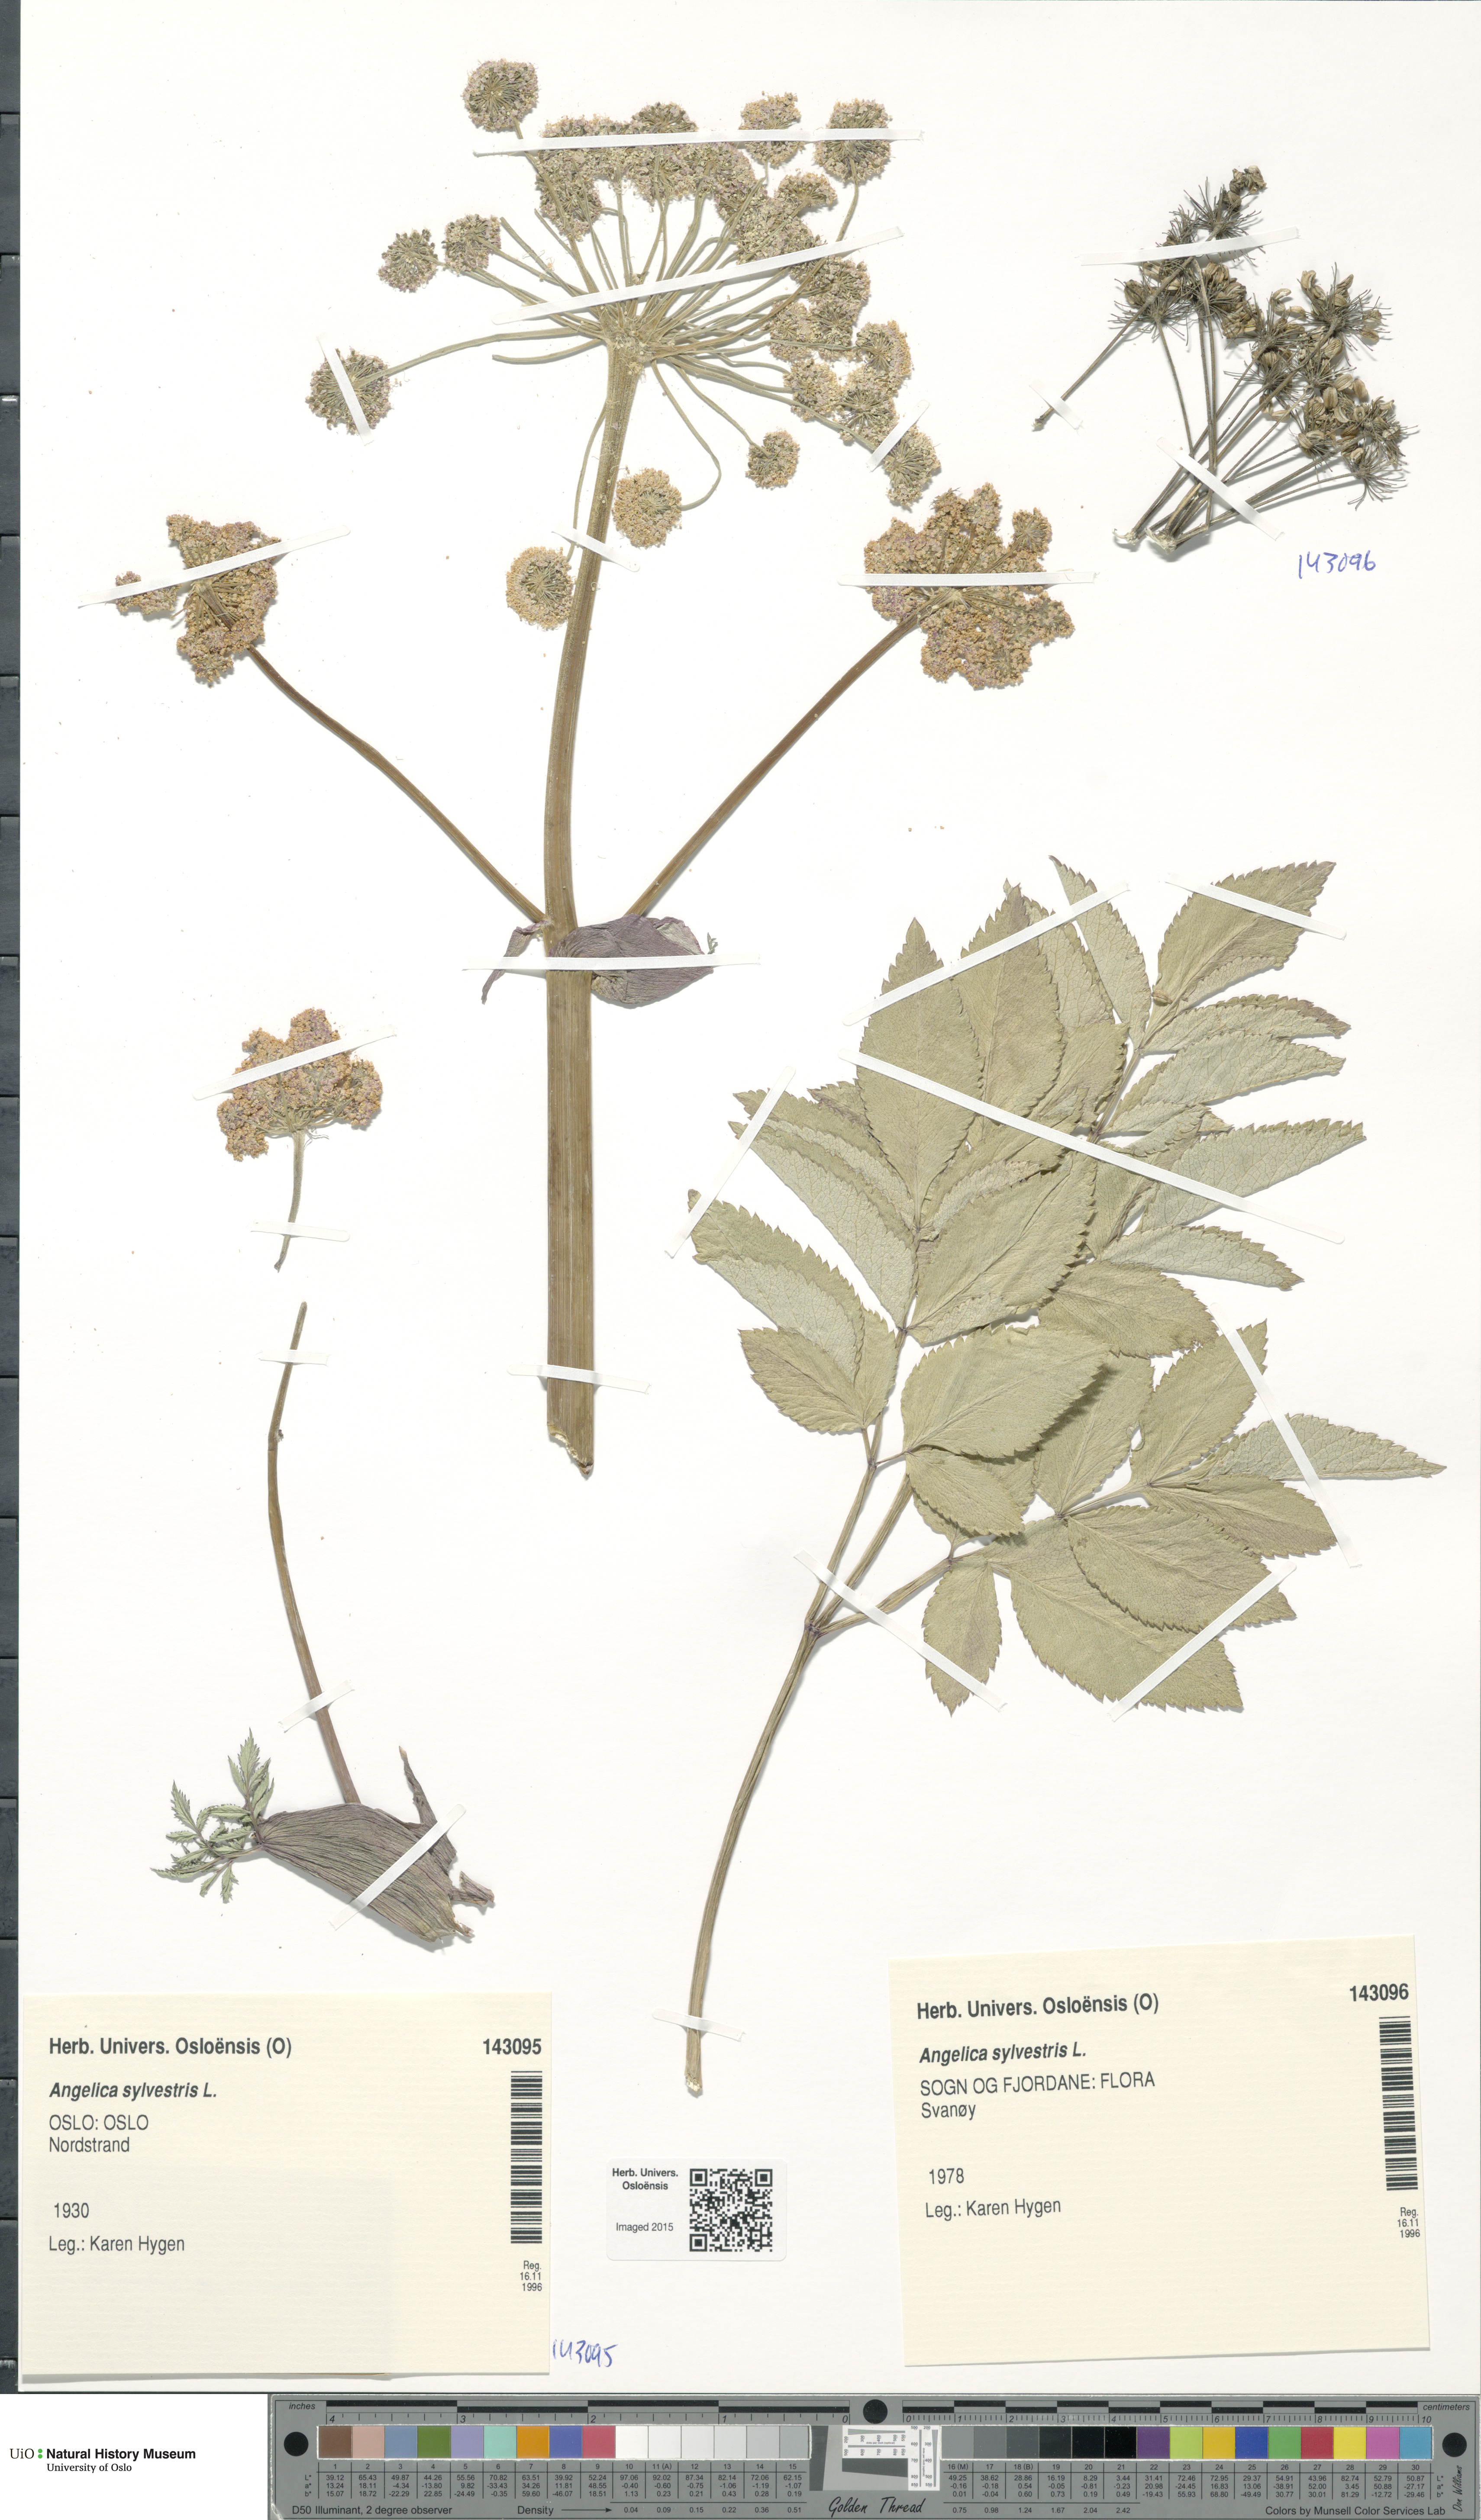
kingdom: Plantae
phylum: Tracheophyta
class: Magnoliopsida
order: Apiales
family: Apiaceae
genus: Angelica
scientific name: Angelica sylvestris
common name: Wild angelica
